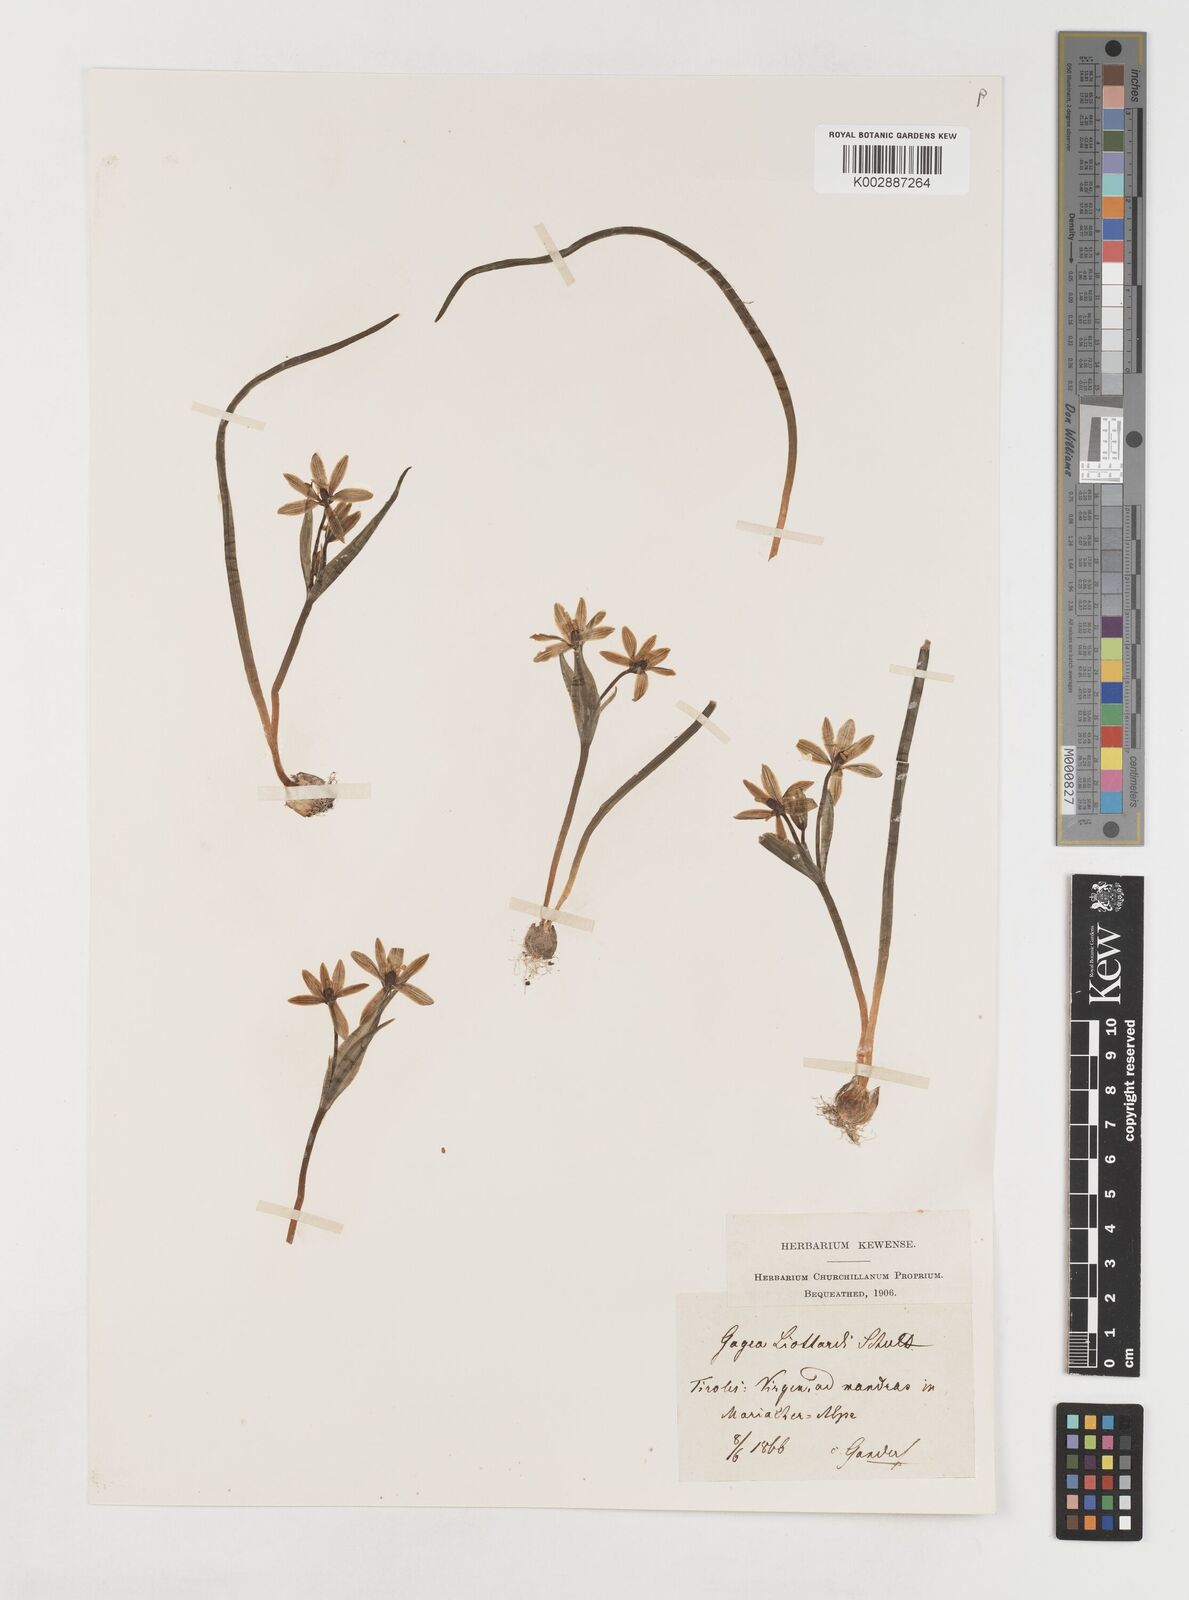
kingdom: Plantae
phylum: Tracheophyta
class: Liliopsida
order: Liliales
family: Liliaceae
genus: Gagea
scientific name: Gagea bohemica
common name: Early star-of-bethlehem
